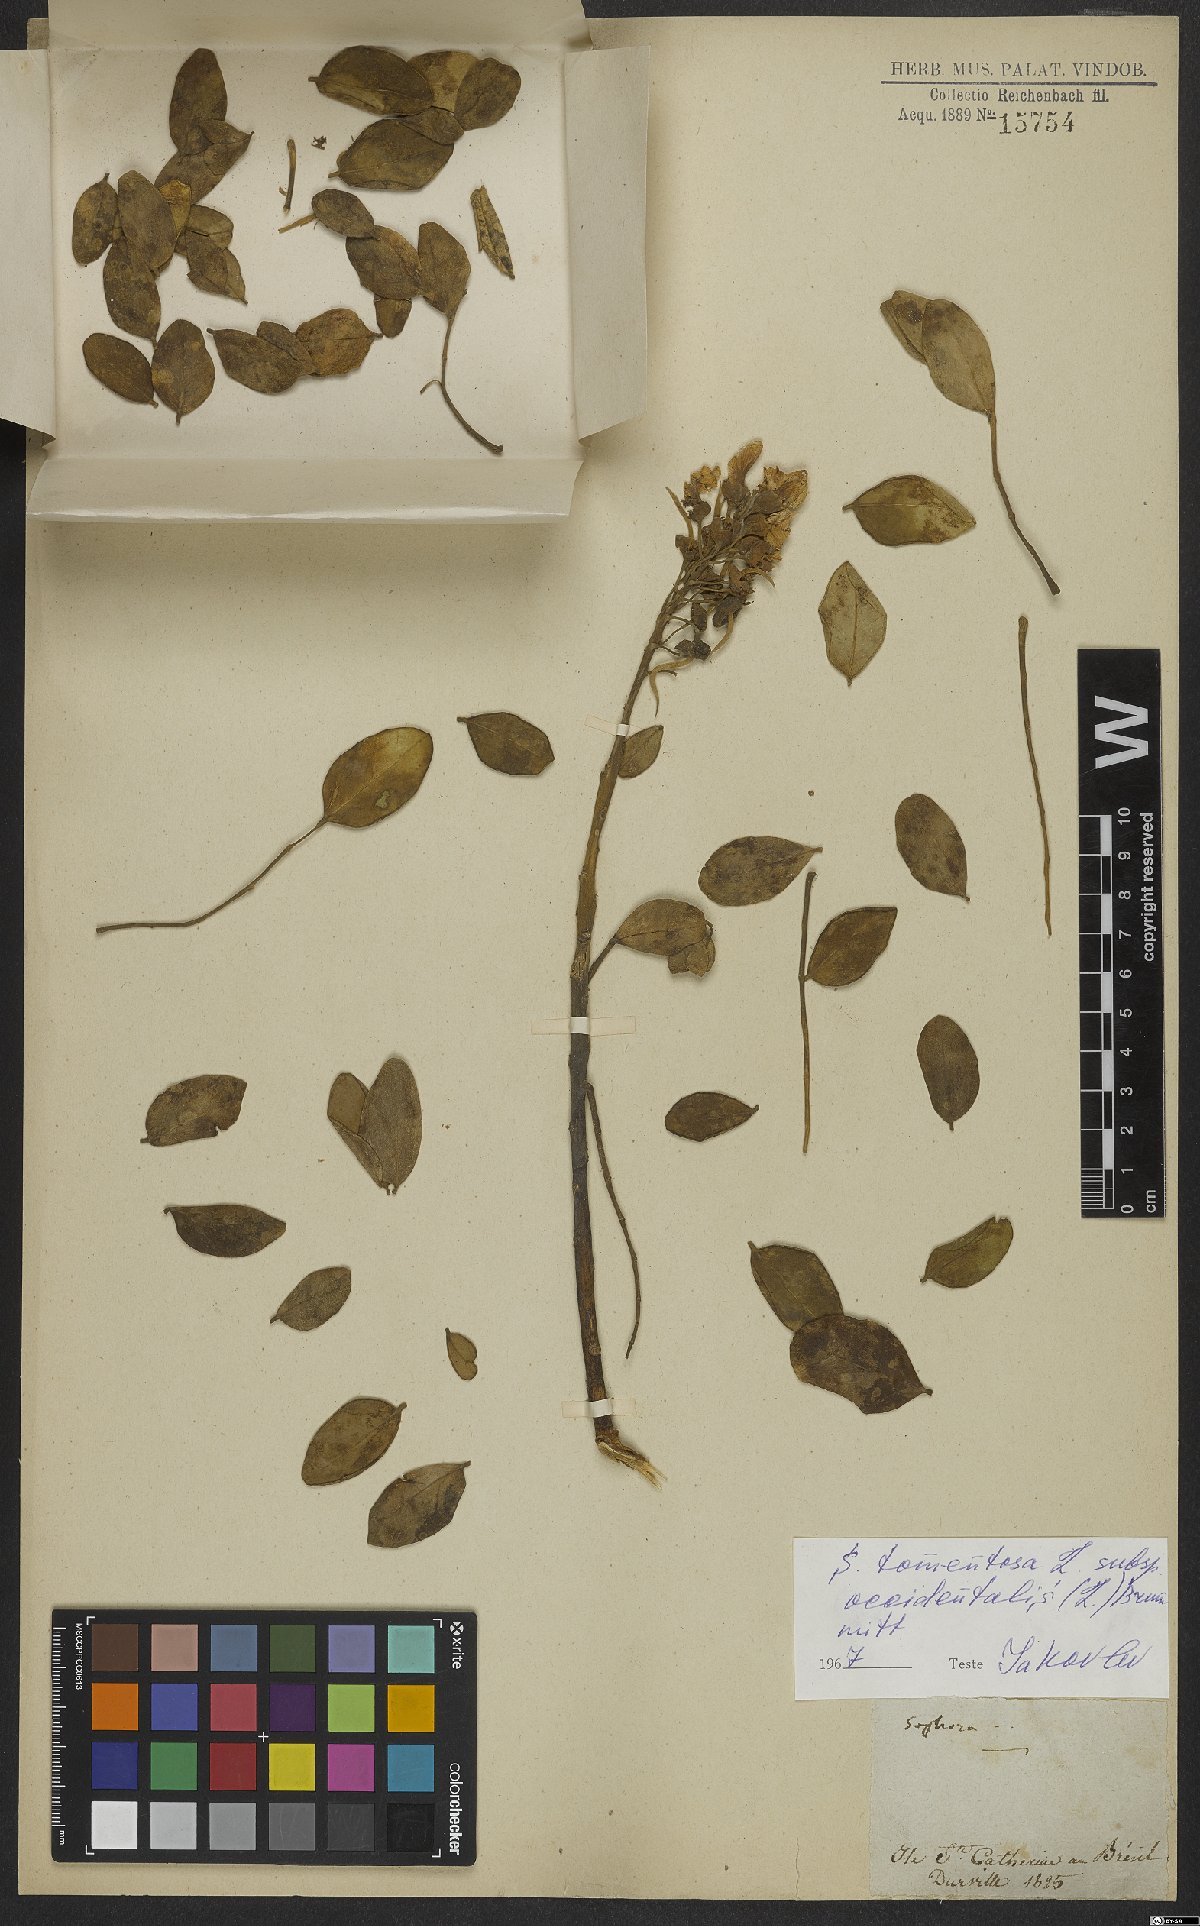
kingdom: Plantae
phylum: Tracheophyta
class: Magnoliopsida
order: Fabales
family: Fabaceae
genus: Sophora
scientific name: Sophora tomentosa
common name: Yellow necklacepod
